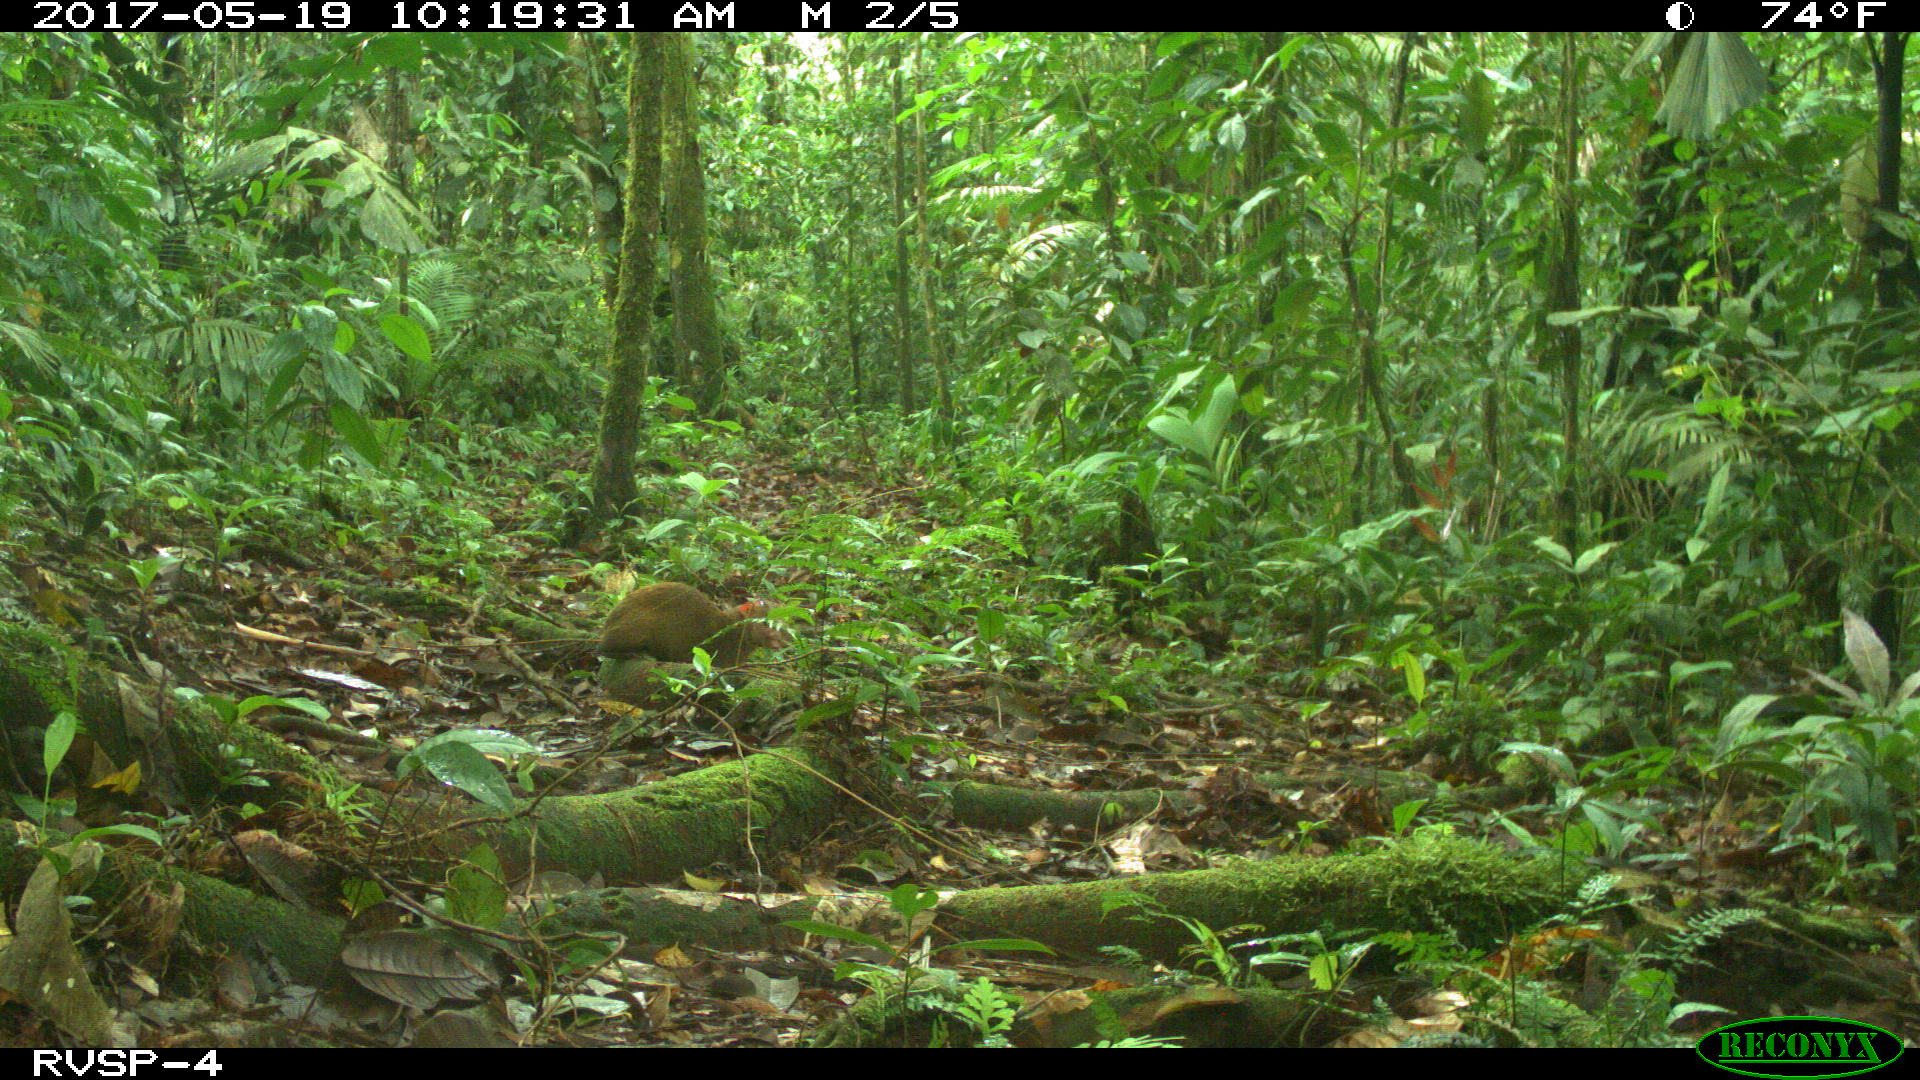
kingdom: Animalia
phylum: Chordata
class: Mammalia
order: Rodentia
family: Dasyproctidae
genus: Dasyprocta
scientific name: Dasyprocta punctata
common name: Central american agouti
